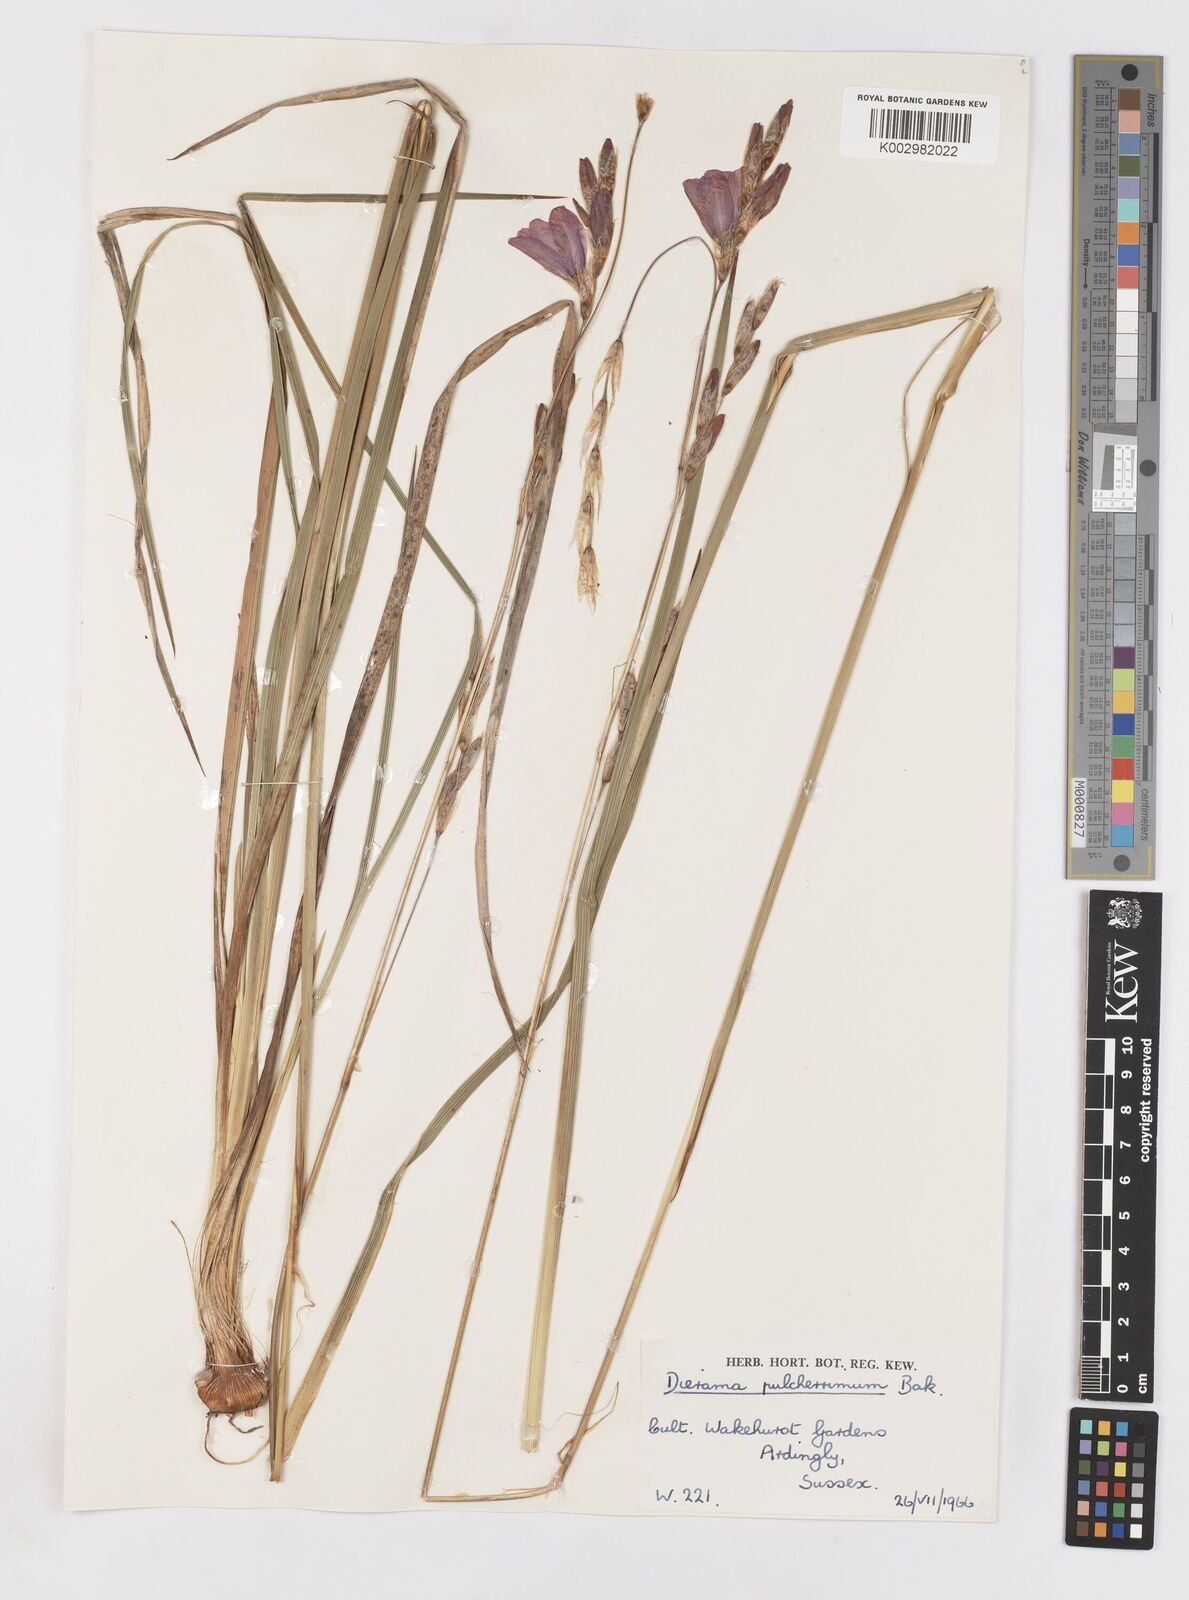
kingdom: Plantae
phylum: Tracheophyta
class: Liliopsida
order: Asparagales
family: Iridaceae
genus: Dierama
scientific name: Dierama pulcherrimum
